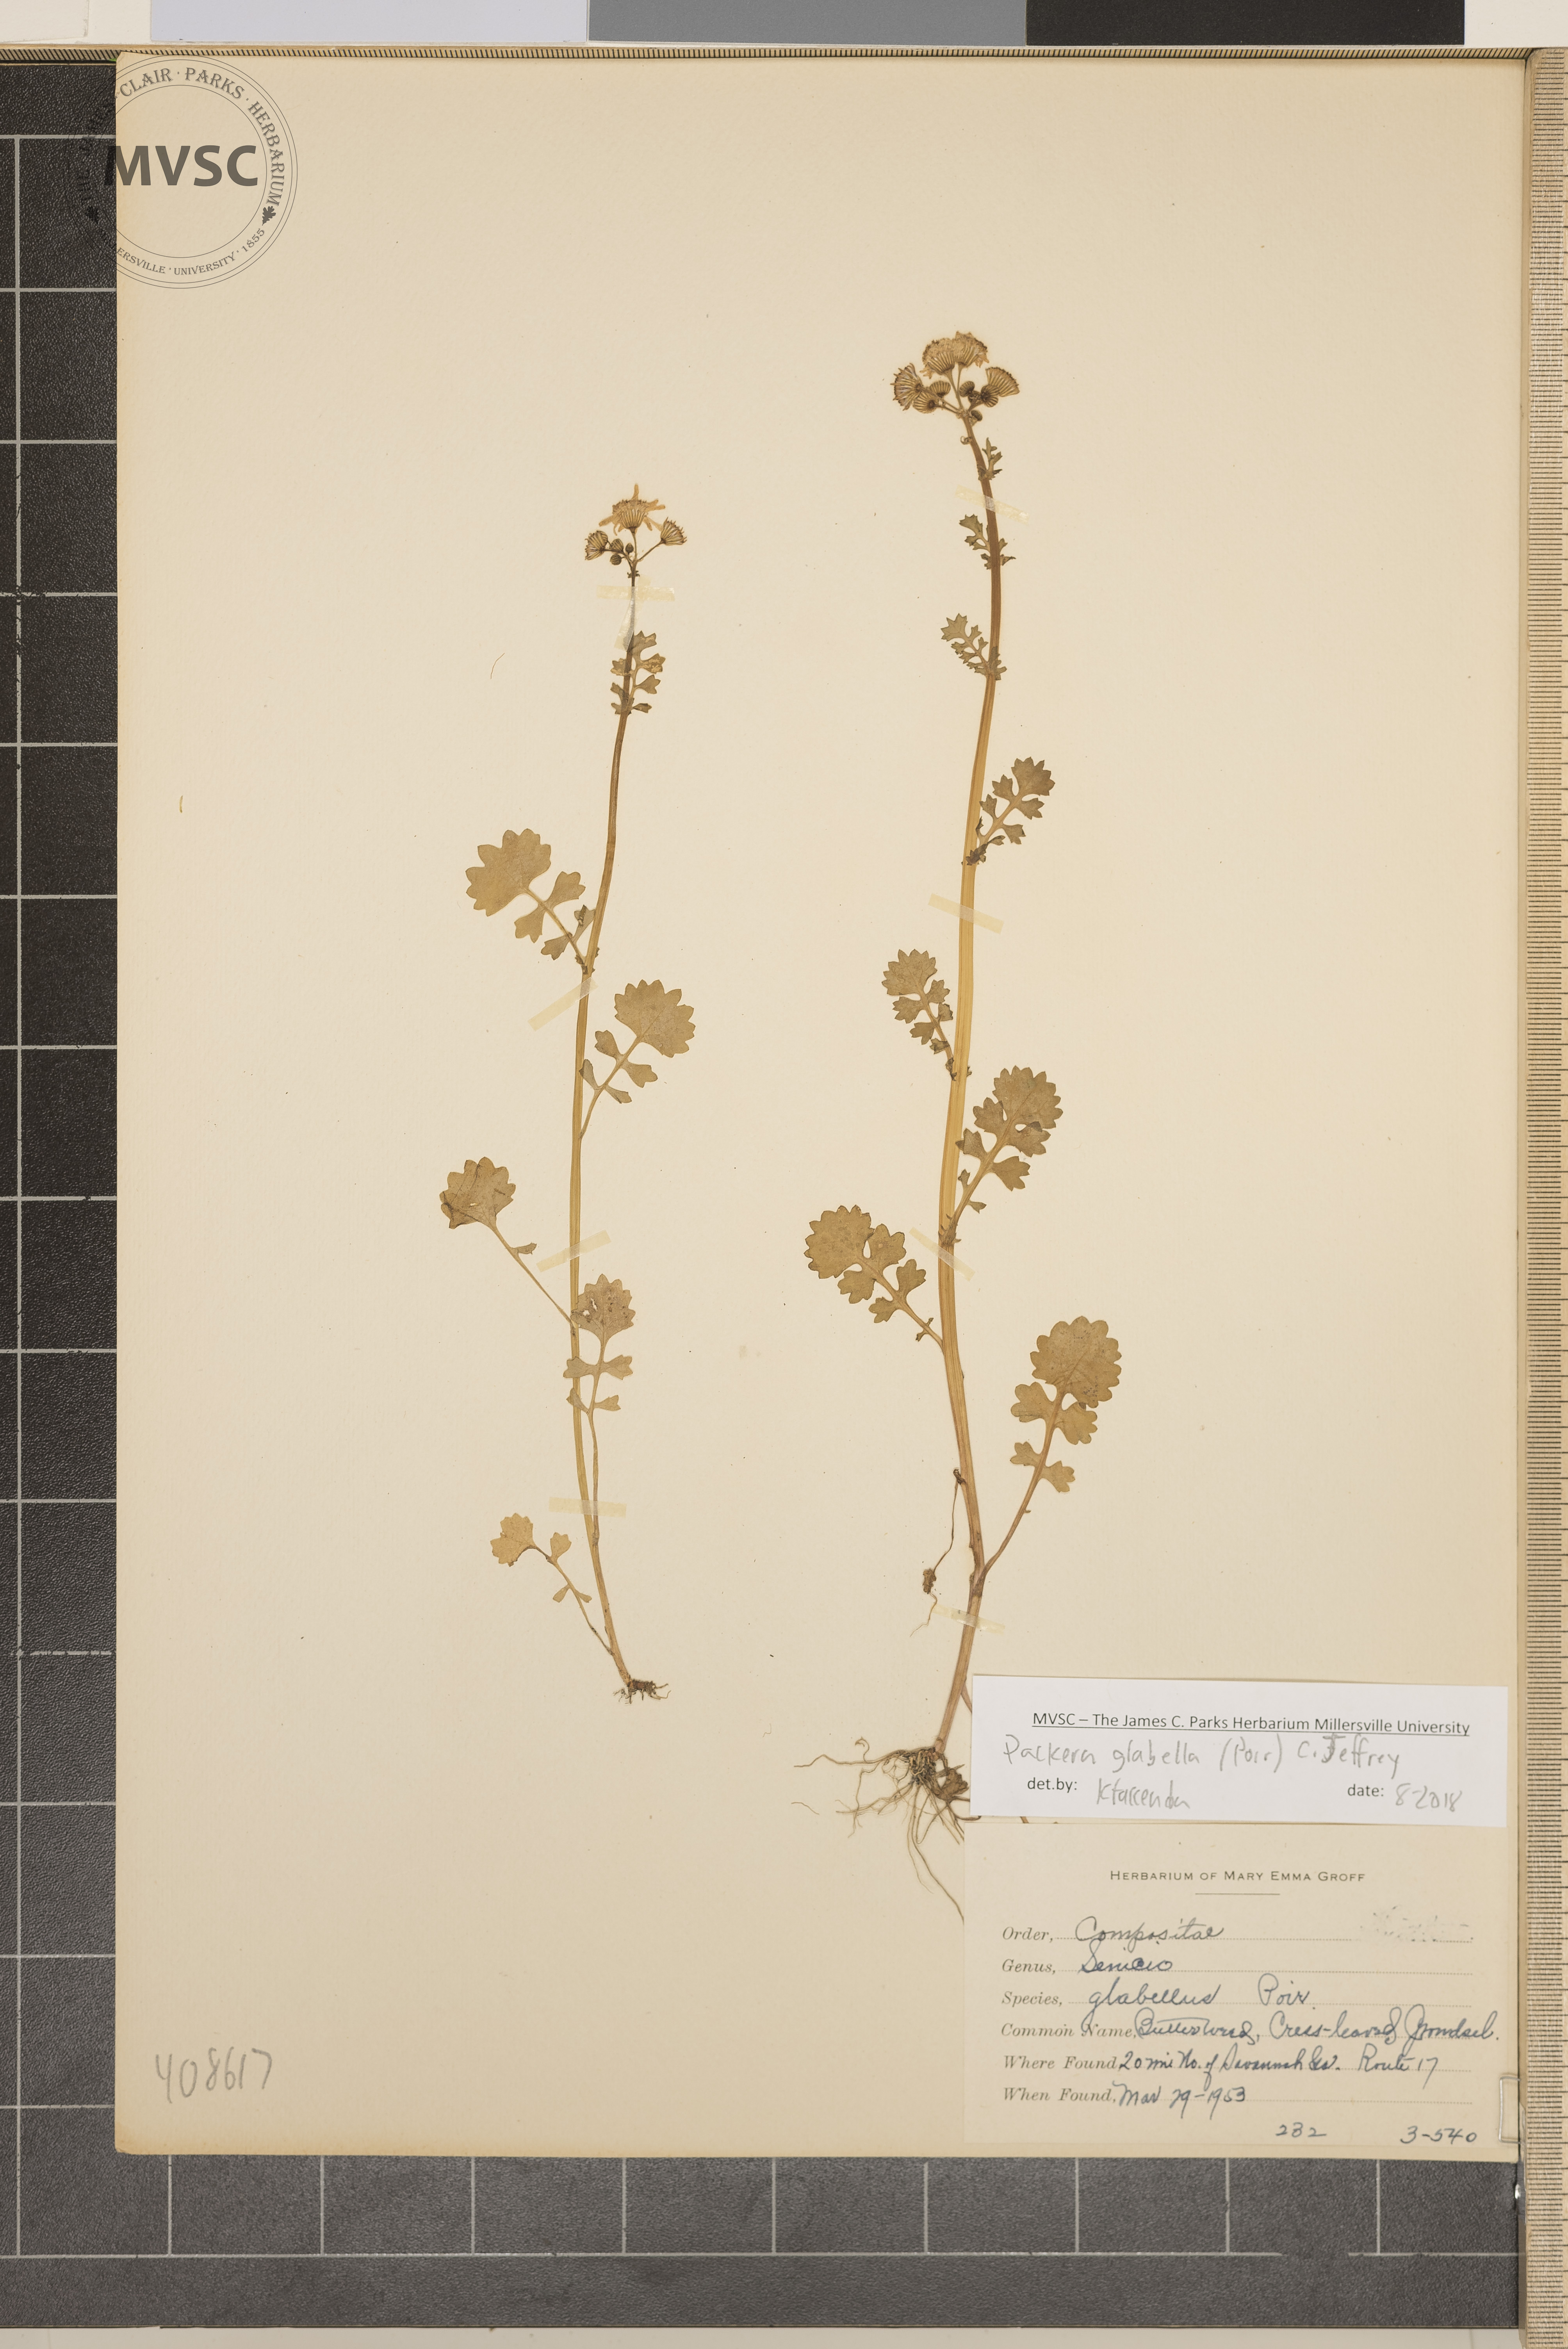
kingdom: Plantae
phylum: Tracheophyta
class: Magnoliopsida
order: Asterales
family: Asteraceae
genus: Packera
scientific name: Packera glabella
